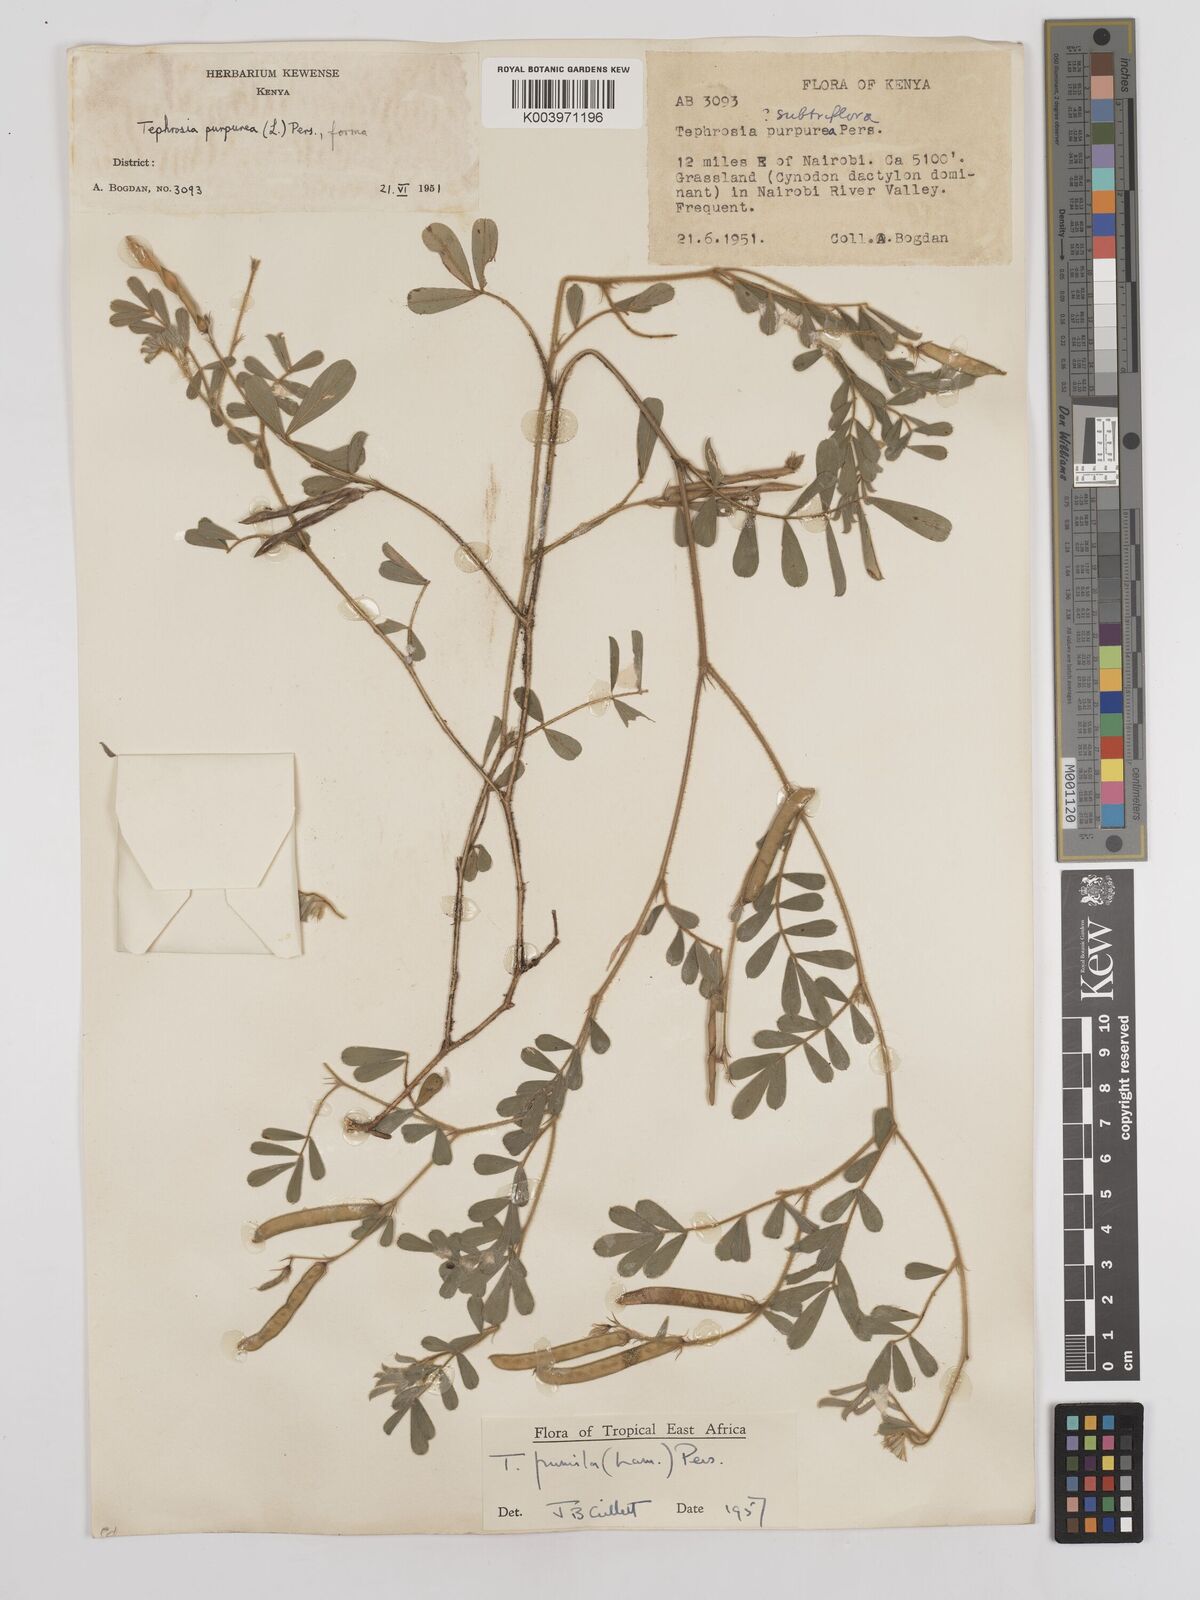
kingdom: Plantae
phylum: Tracheophyta
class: Magnoliopsida
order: Fabales
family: Fabaceae
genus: Tephrosia
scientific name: Tephrosia pumila
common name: Indigo sauvage
